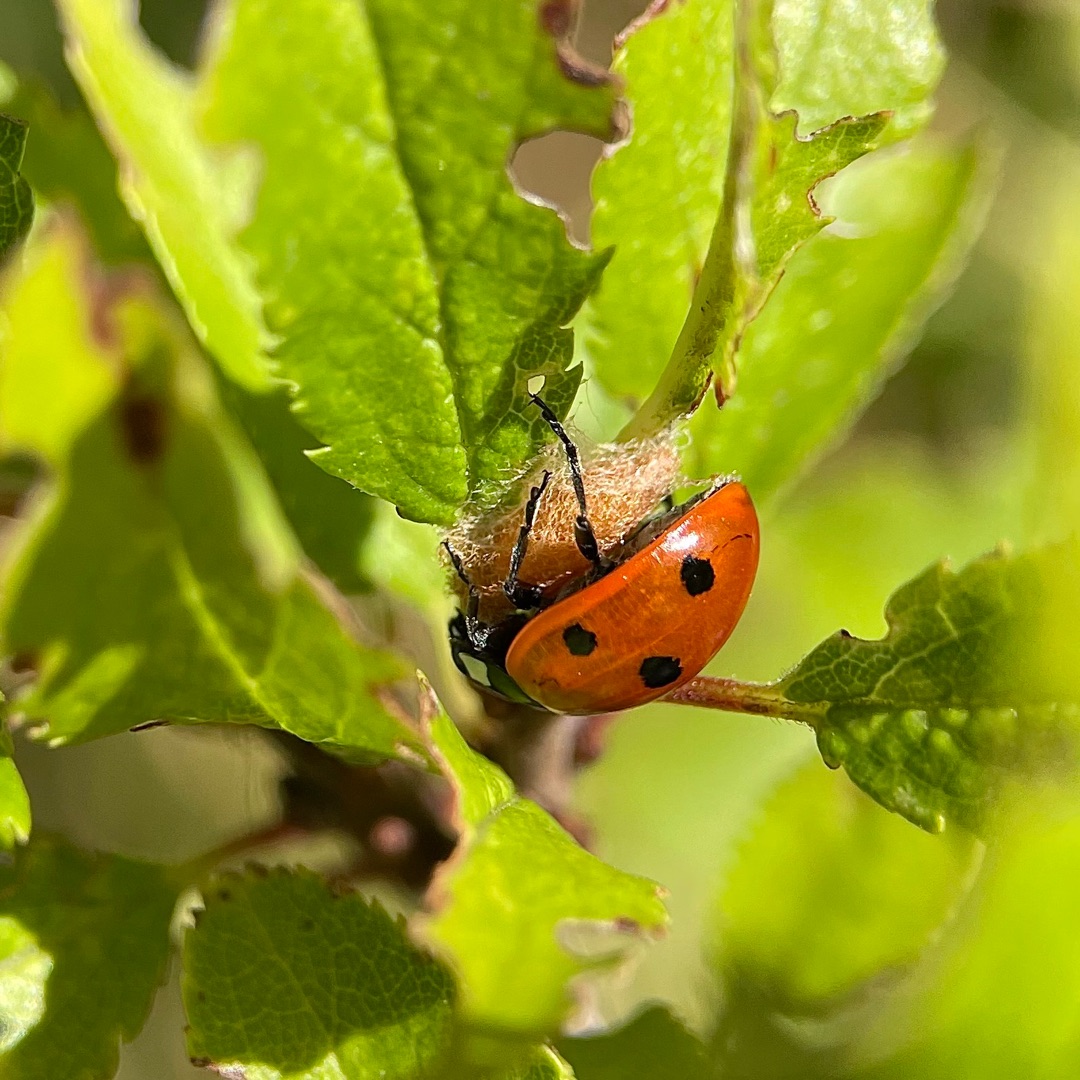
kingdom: Animalia
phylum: Arthropoda
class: Insecta
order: Hymenoptera
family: Braconidae
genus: Dinocampus
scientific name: Dinocampus coccinellae
